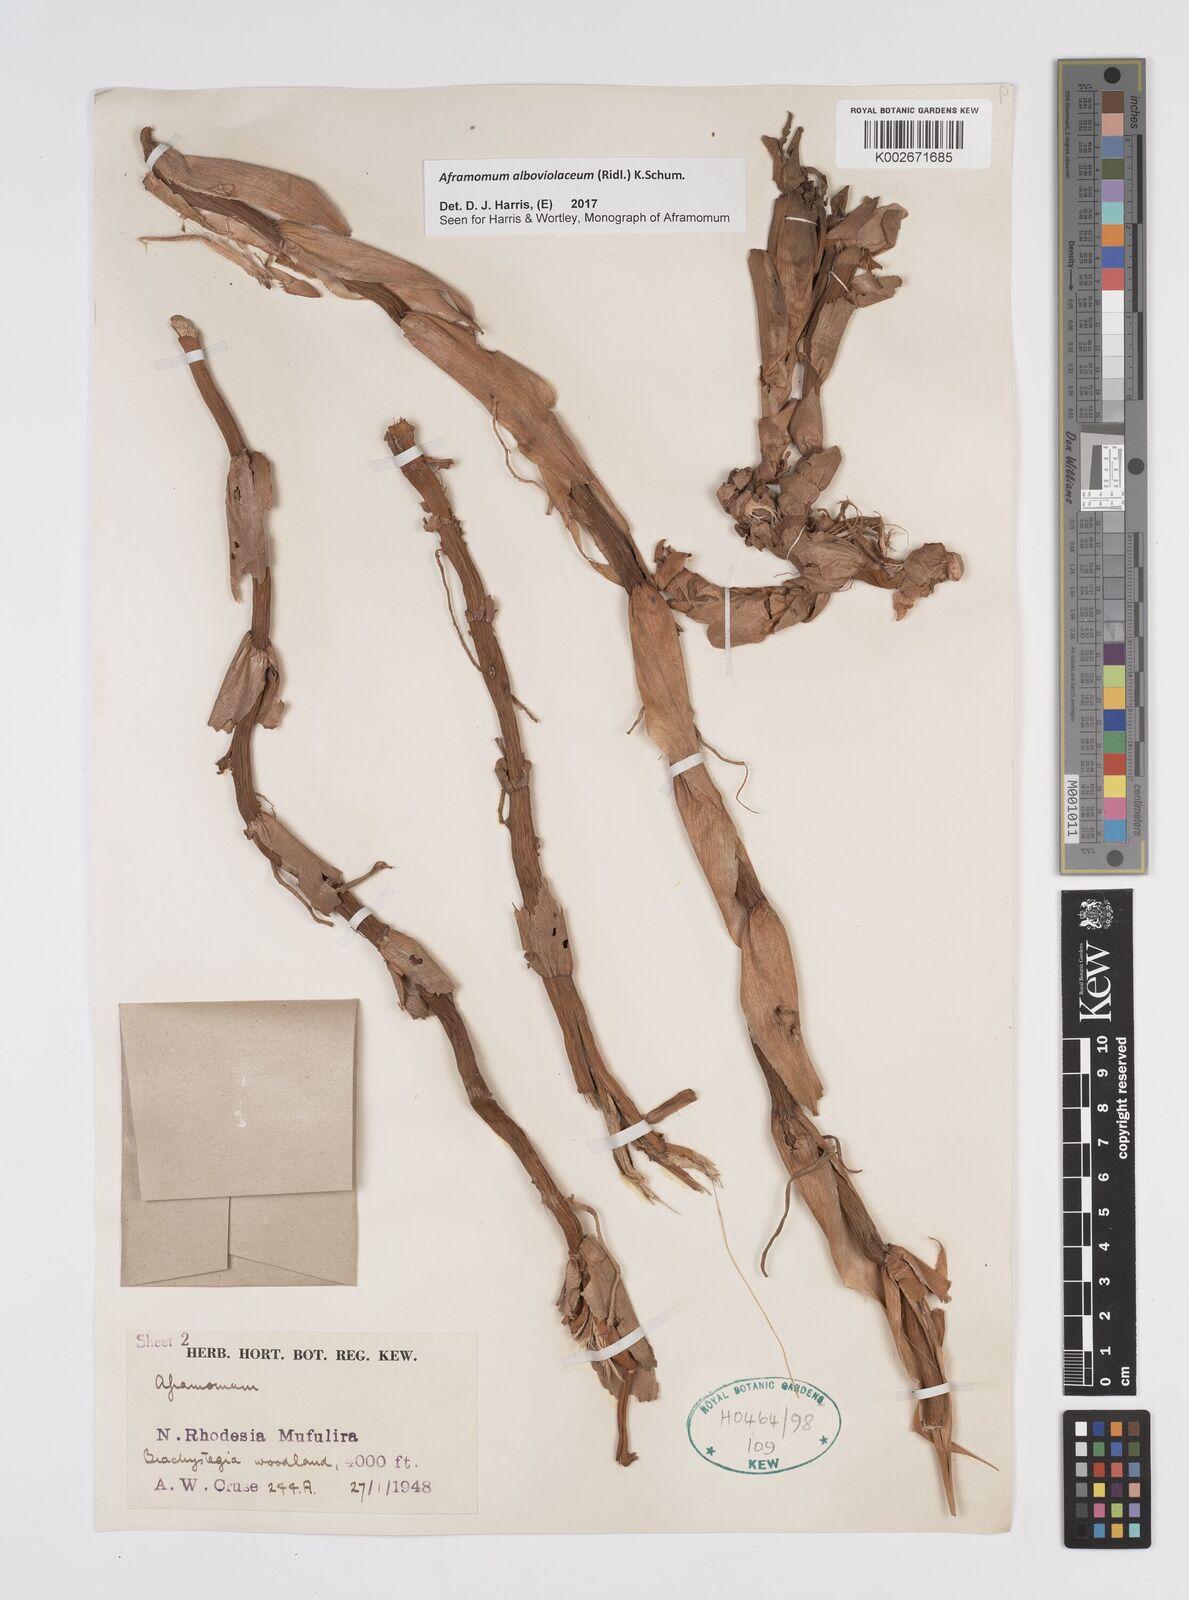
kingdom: Plantae
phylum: Tracheophyta
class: Liliopsida
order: Zingiberales
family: Zingiberaceae
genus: Aframomum
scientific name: Aframomum alboviolaceum
